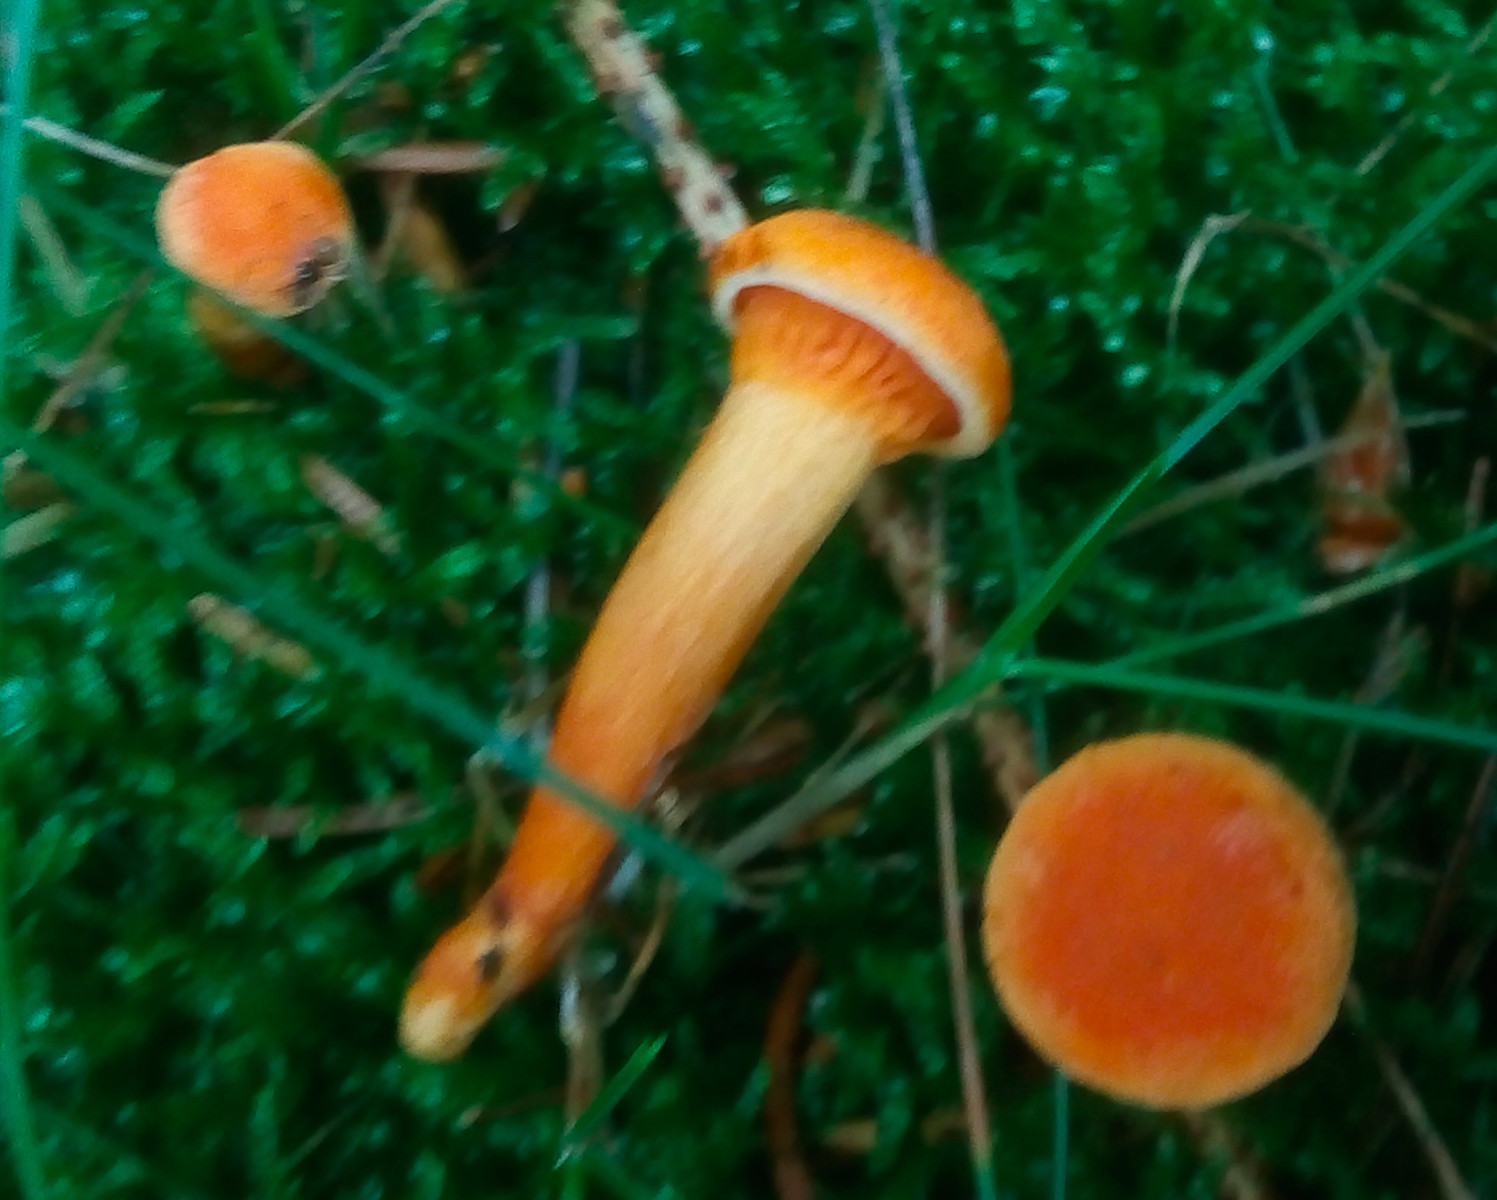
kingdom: Fungi
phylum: Basidiomycota
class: Agaricomycetes
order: Boletales
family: Hygrophoropsidaceae
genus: Hygrophoropsis
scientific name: Hygrophoropsis aurantiaca
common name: almindelig orangekantarel
